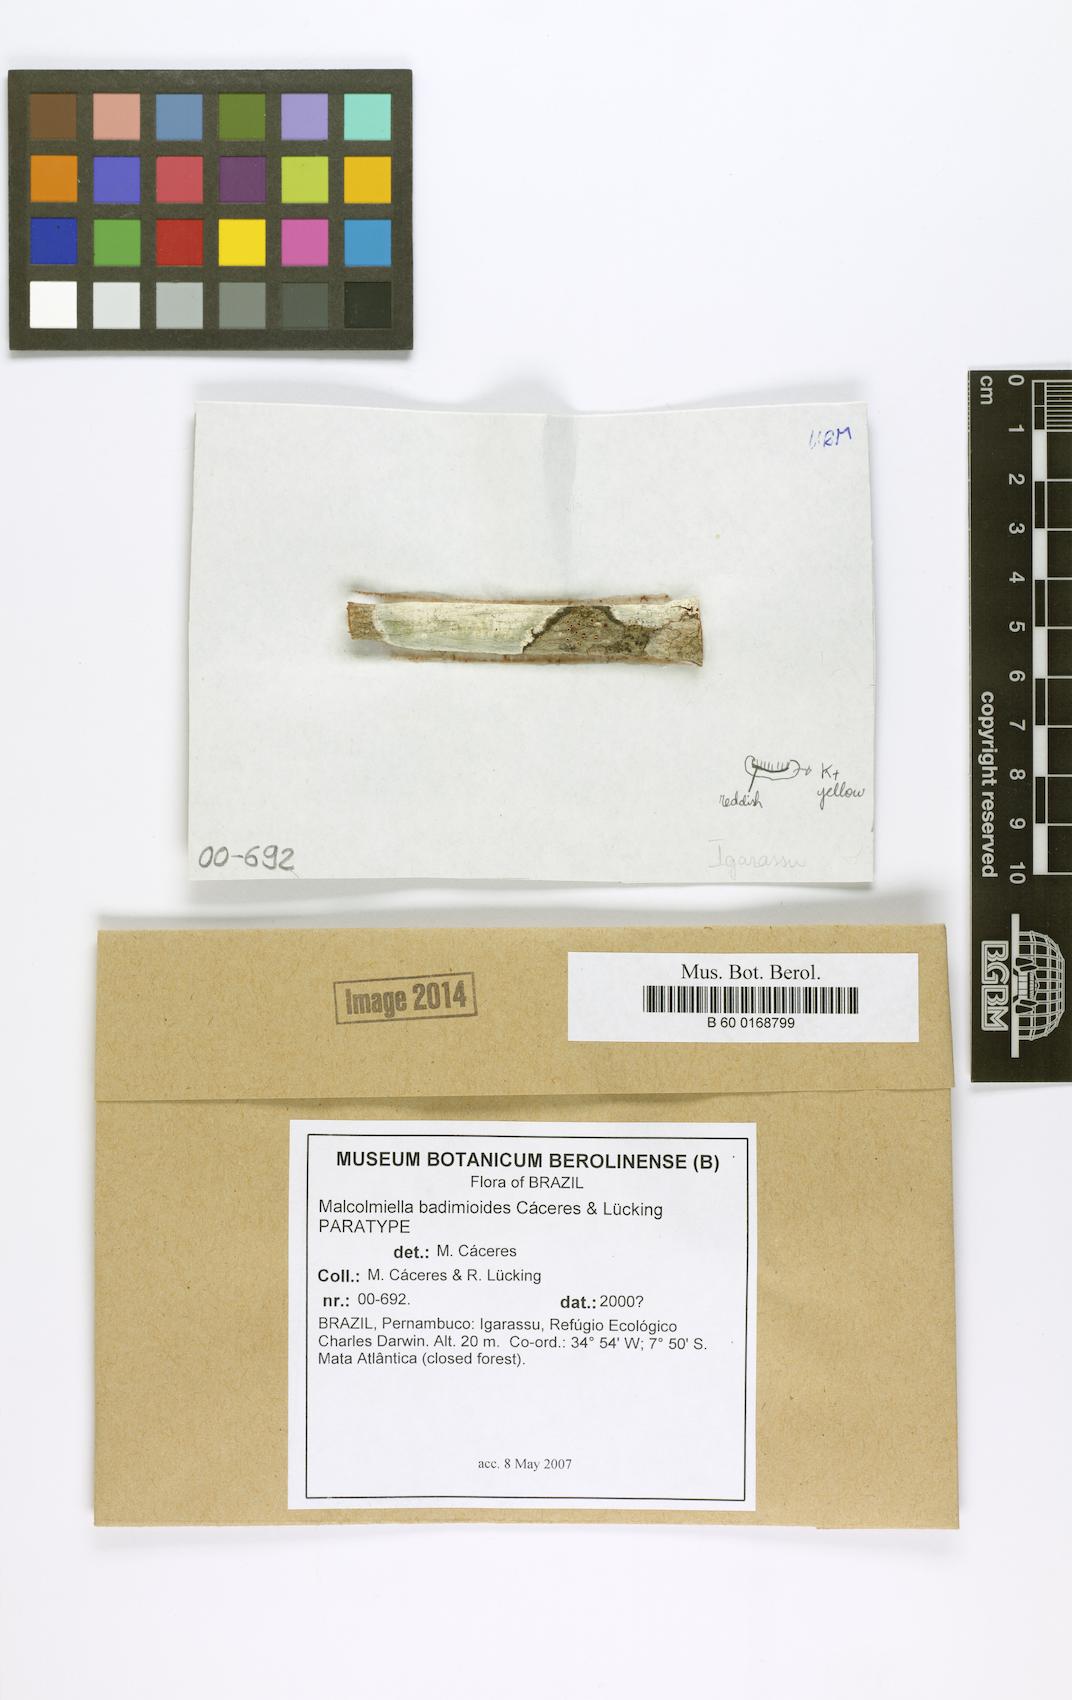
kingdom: Fungi
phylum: Ascomycota
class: Lecanoromycetes
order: Lecanorales
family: Malmideaceae
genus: Malmidea
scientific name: Malmidea badimioides
